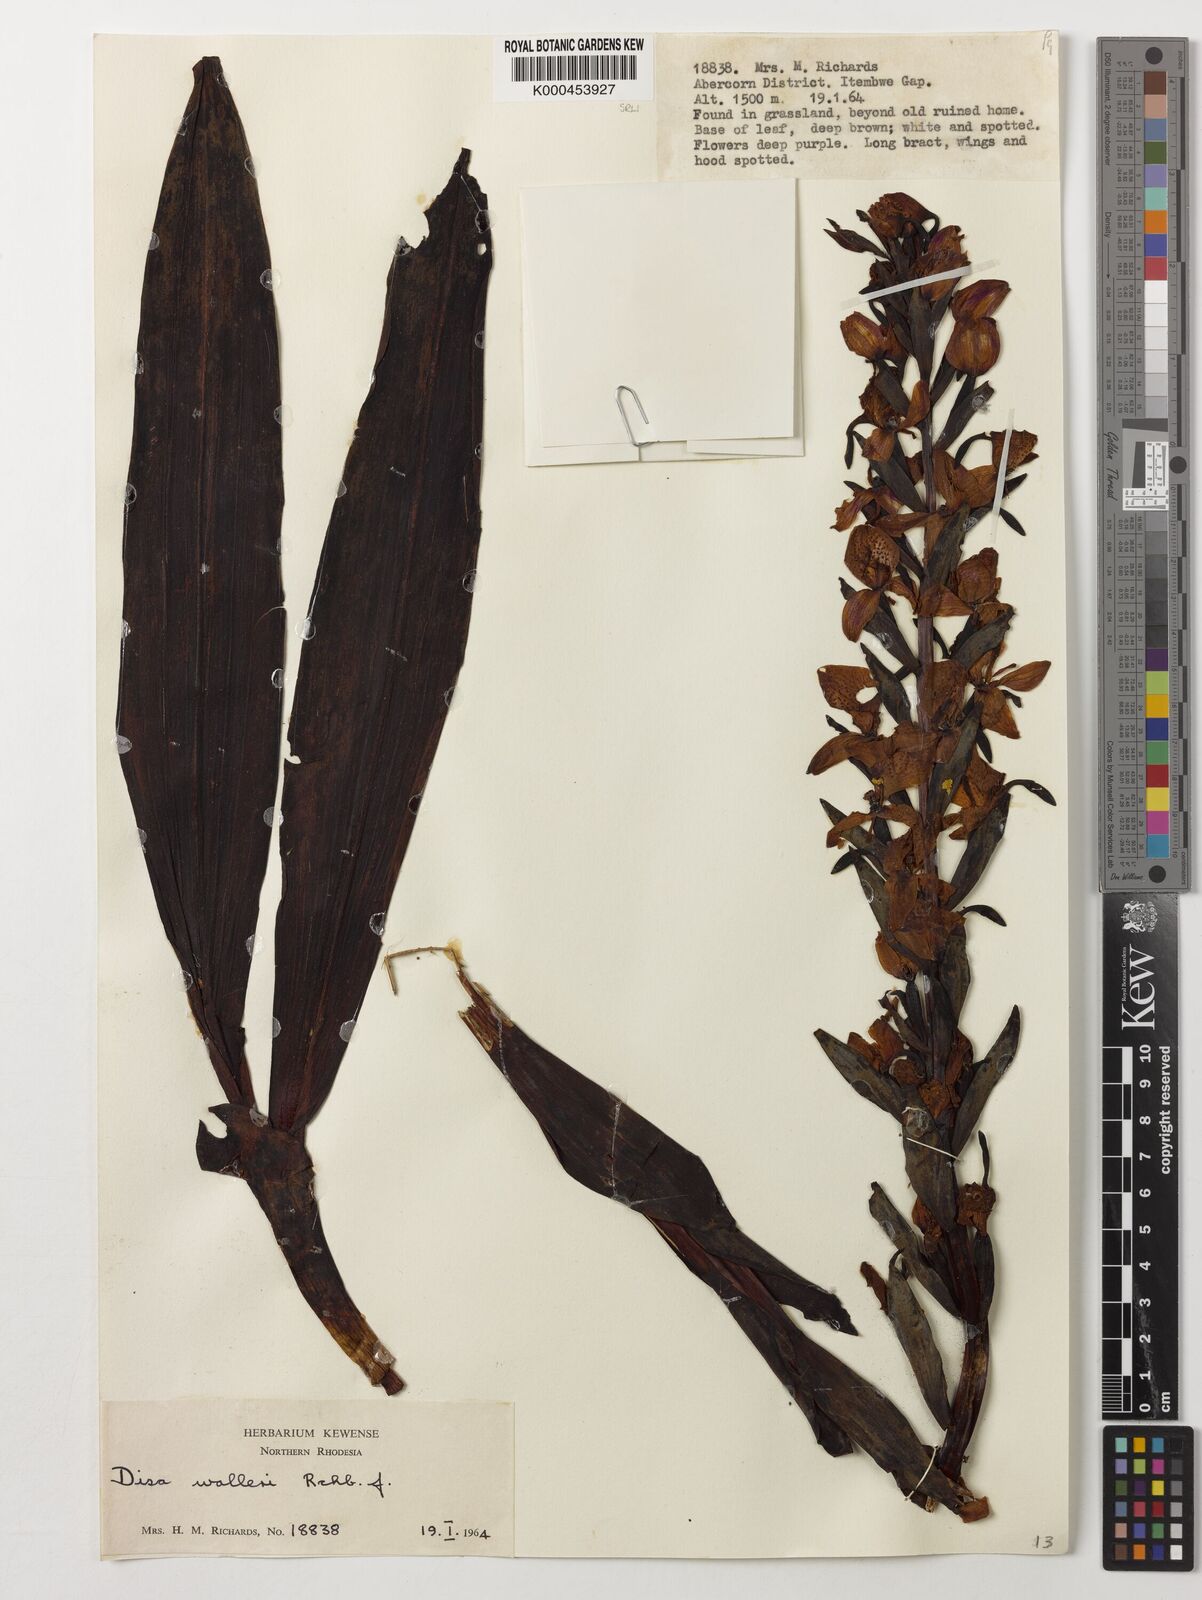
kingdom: Plantae
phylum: Tracheophyta
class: Liliopsida
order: Asparagales
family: Orchidaceae
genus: Disa
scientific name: Disa walleri
